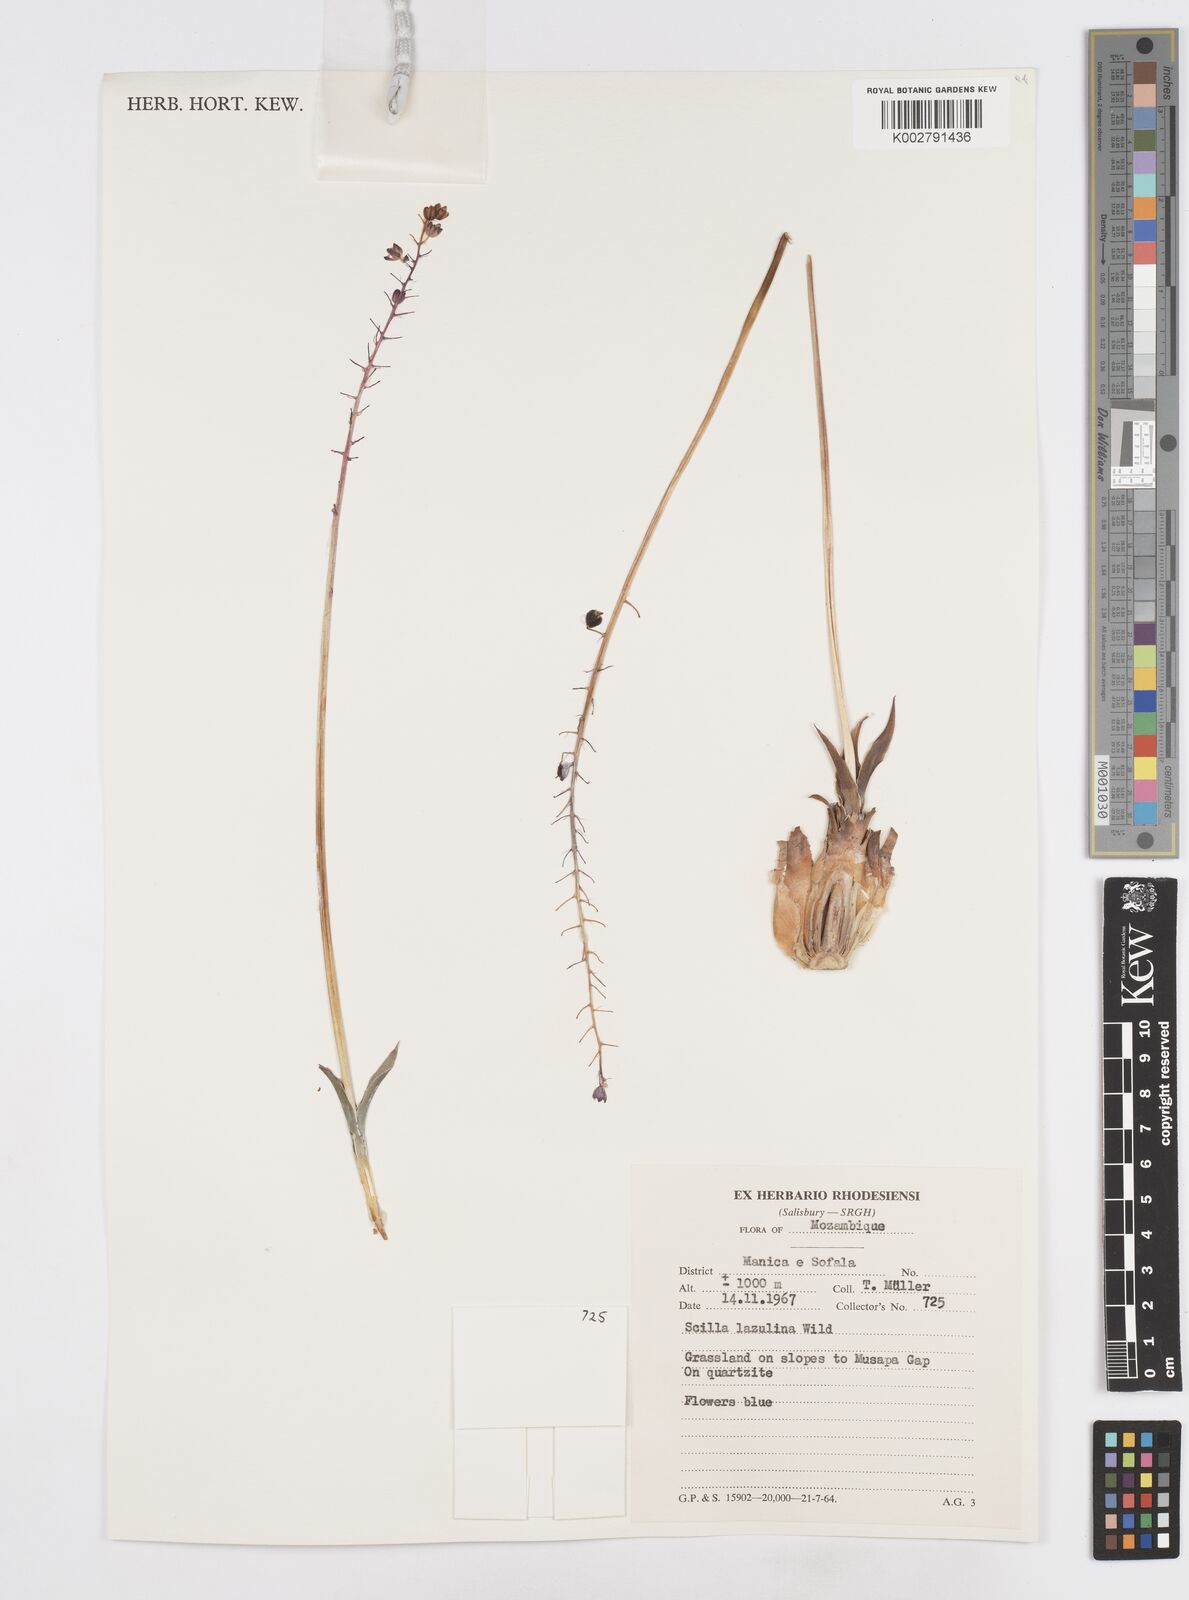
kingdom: Plantae
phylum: Tracheophyta
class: Liliopsida
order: Asparagales
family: Asparagaceae
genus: Merwilla
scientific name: Merwilla plumbea
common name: Blue-squill
